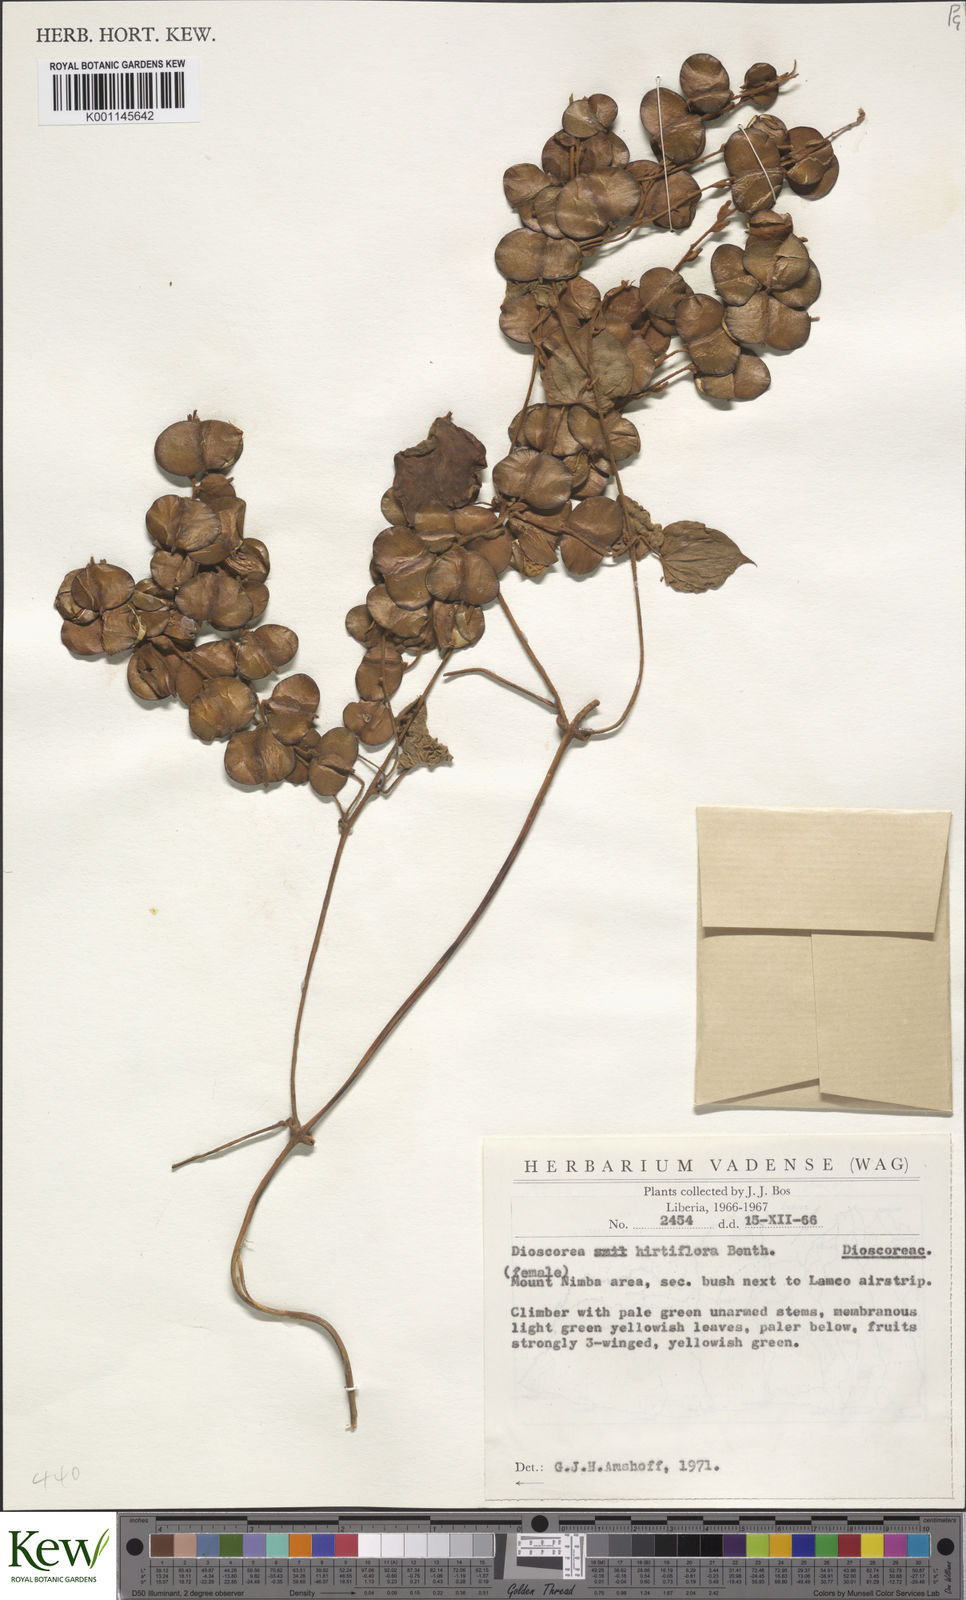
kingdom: Plantae
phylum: Tracheophyta
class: Liliopsida
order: Dioscoreales
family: Dioscoreaceae
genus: Dioscorea
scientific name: Dioscorea hirtiflora
